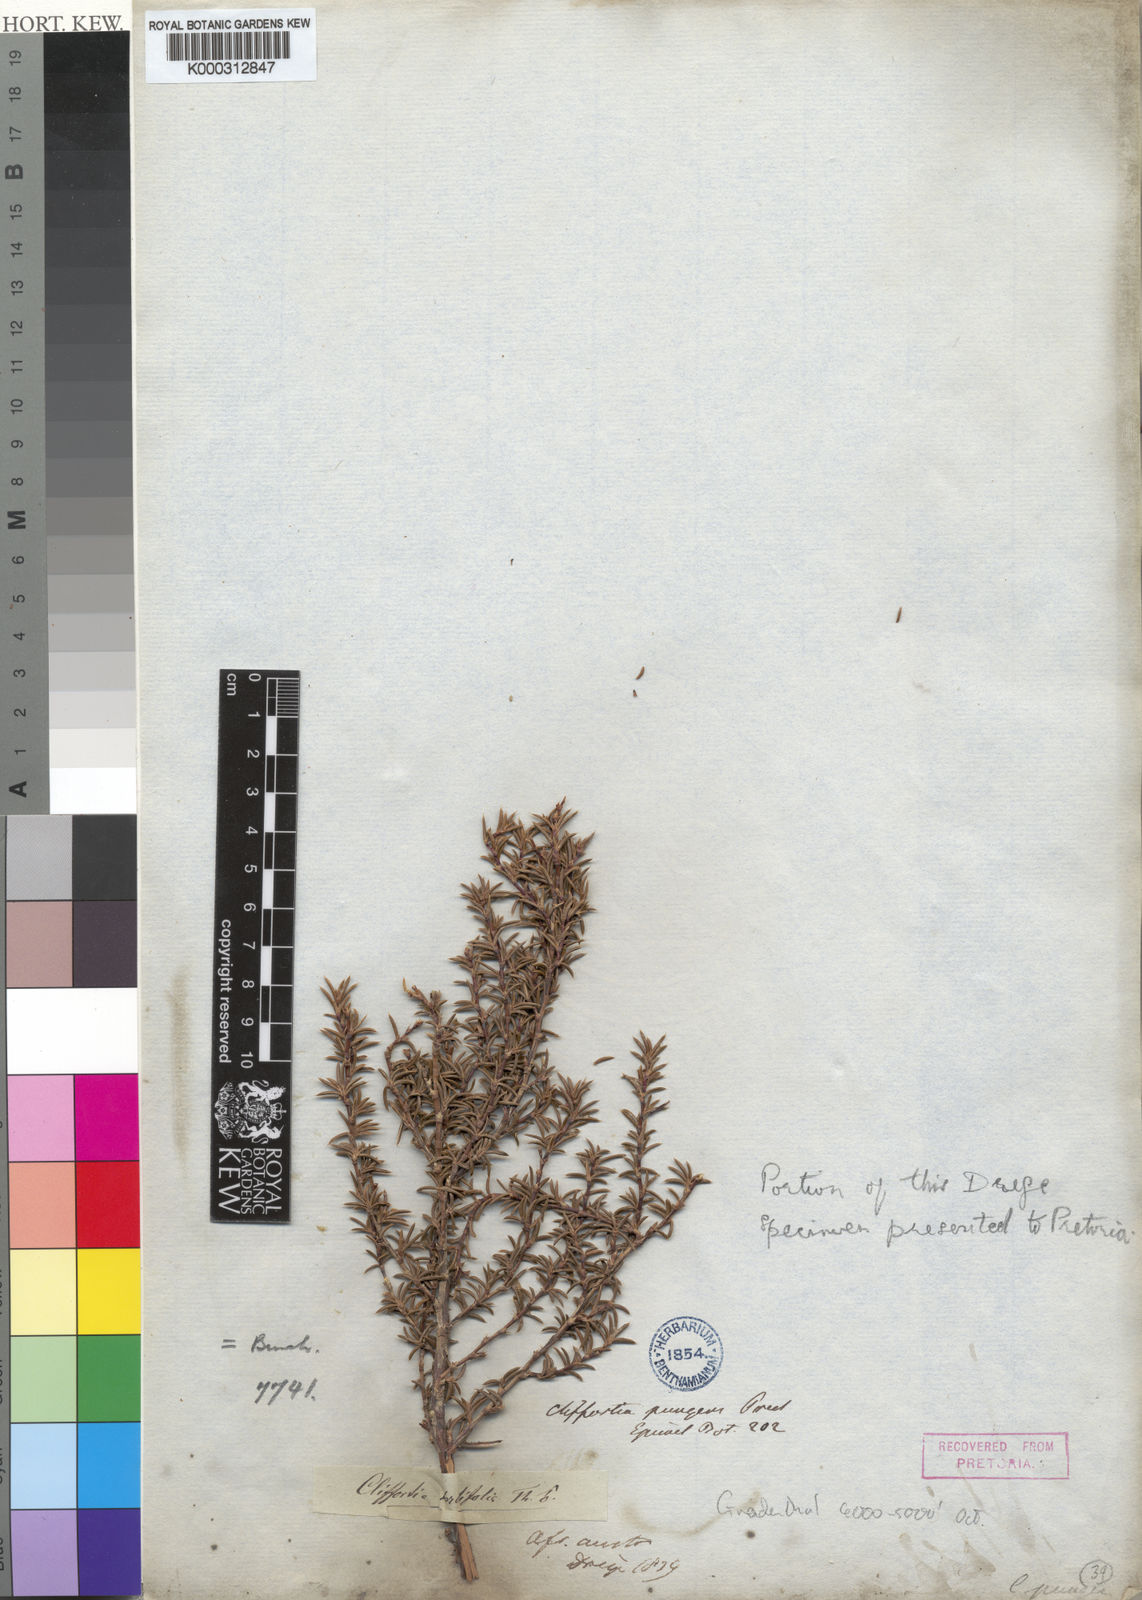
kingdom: Plantae
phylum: Tracheophyta
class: Magnoliopsida
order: Rosales
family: Rosaceae
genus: Cliffortia
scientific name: Cliffortia
